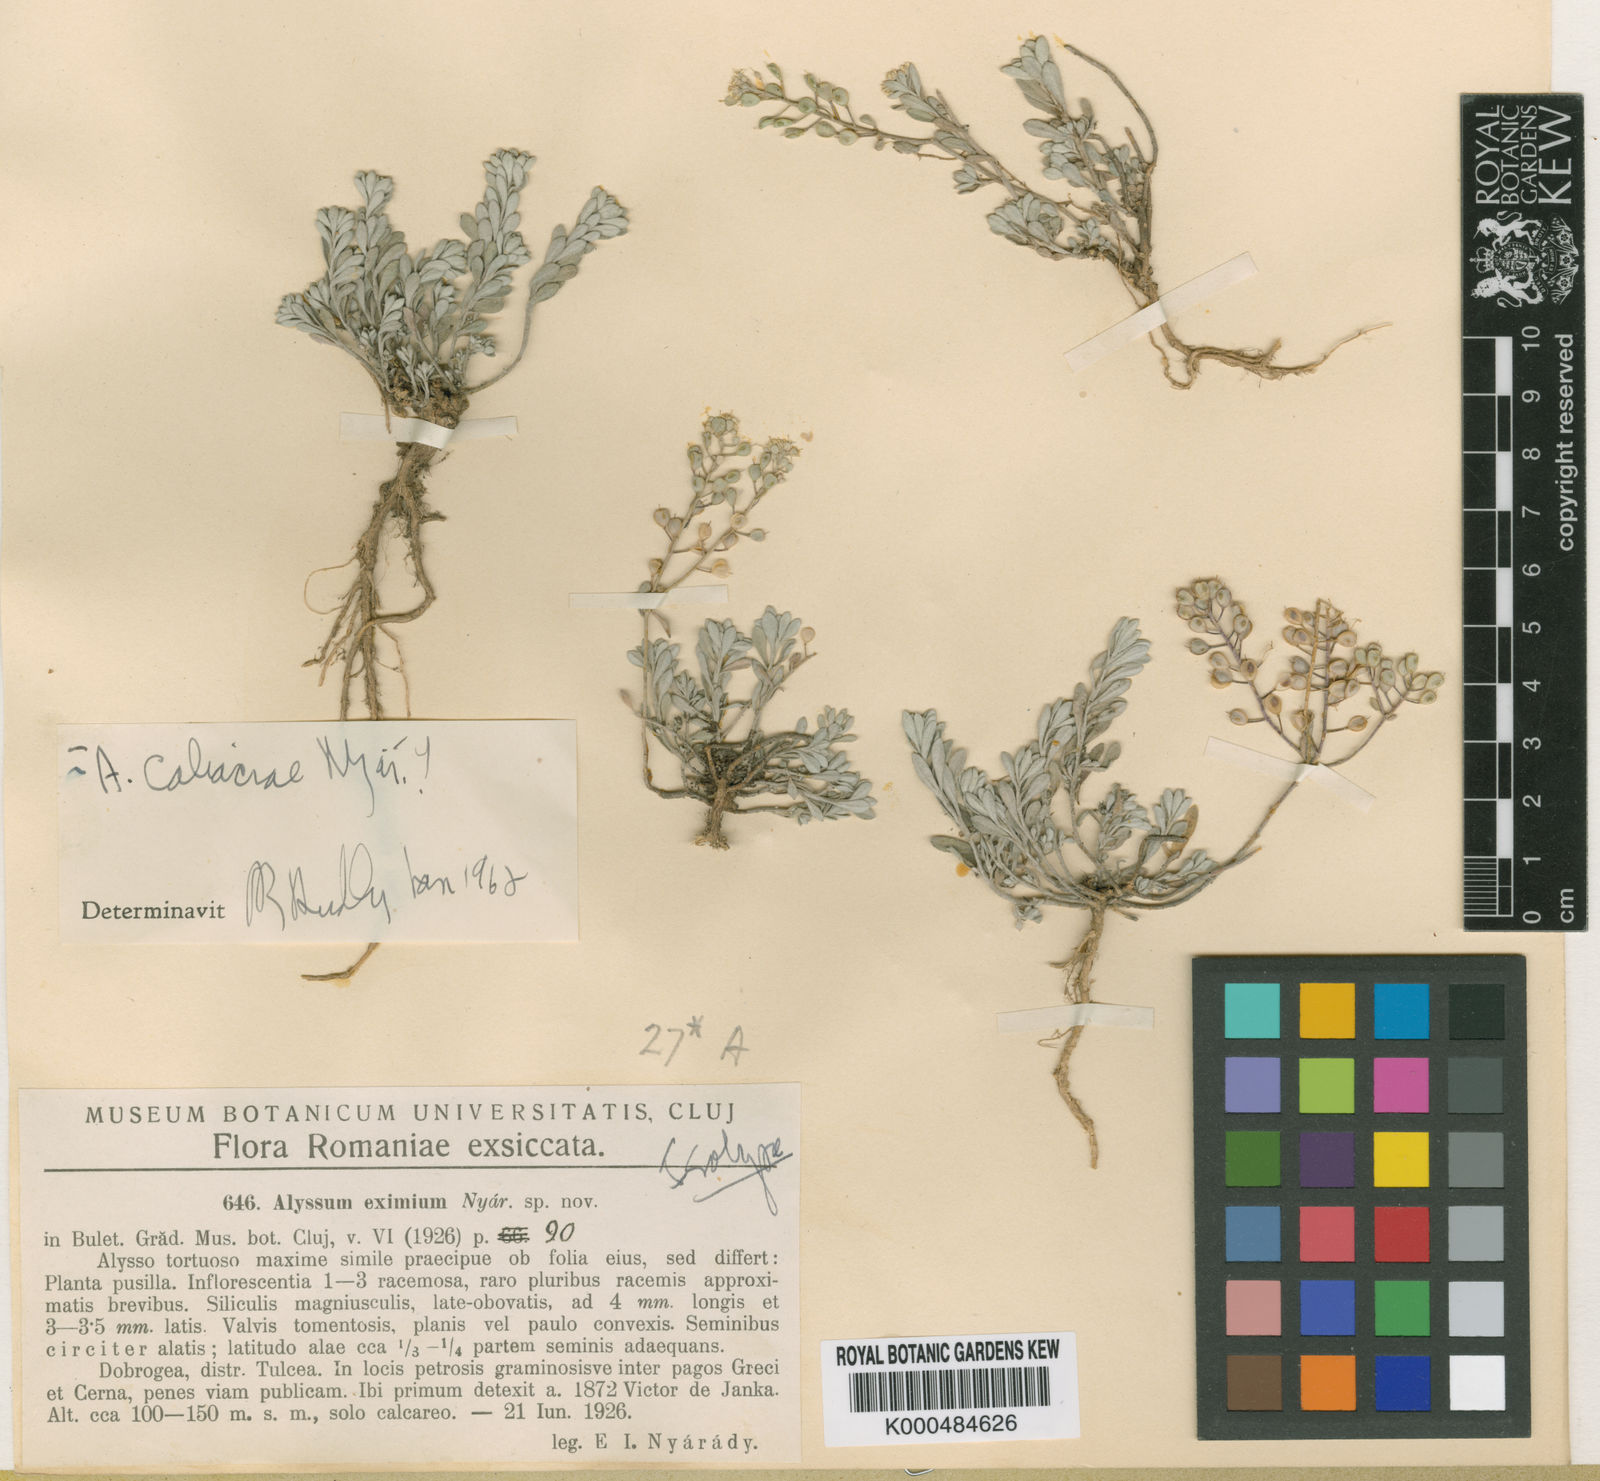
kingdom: Plantae
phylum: Tracheophyta
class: Magnoliopsida
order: Brassicales
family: Brassicaceae
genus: Odontarrhena
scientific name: Odontarrhena caliacrae
